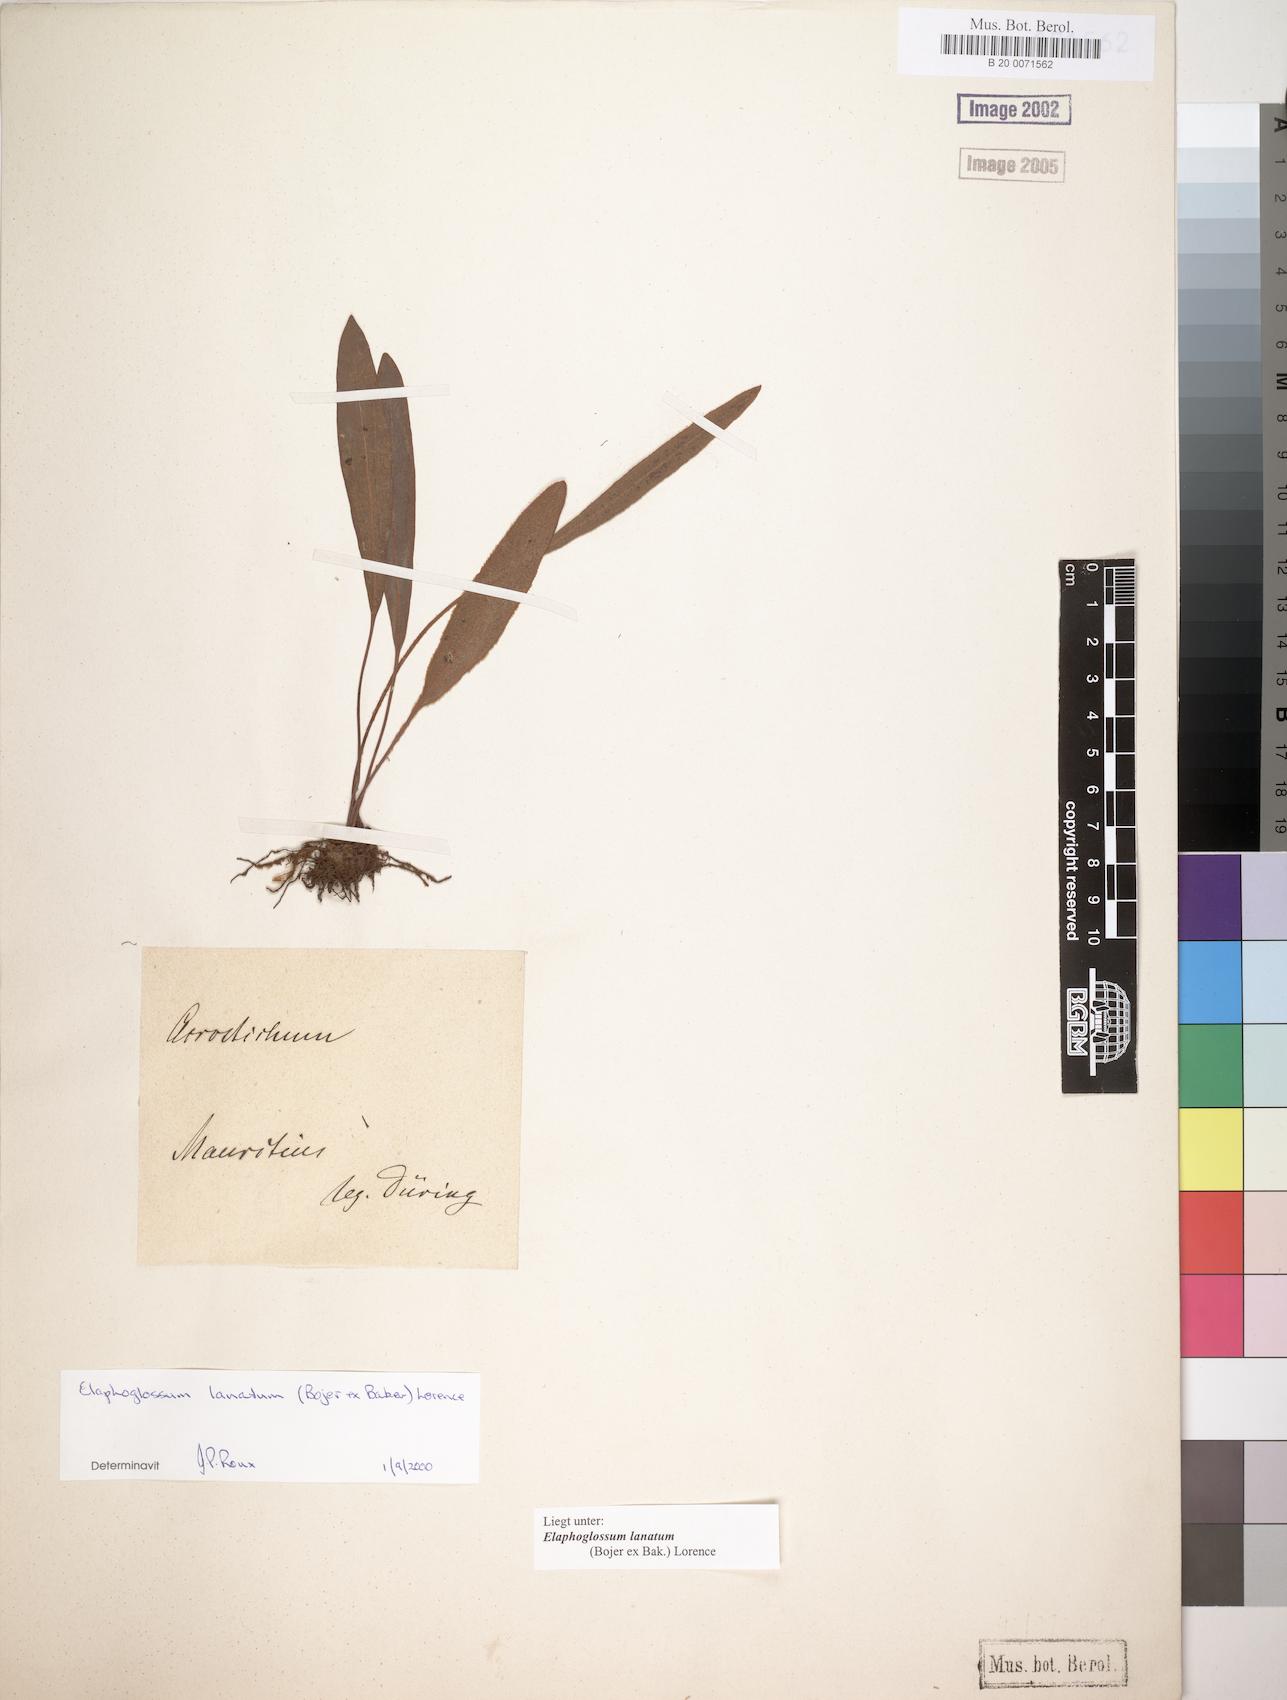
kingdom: Plantae
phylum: Tracheophyta
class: Polypodiopsida
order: Polypodiales
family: Dryopteridaceae
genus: Elaphoglossum
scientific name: Elaphoglossum lanatum
